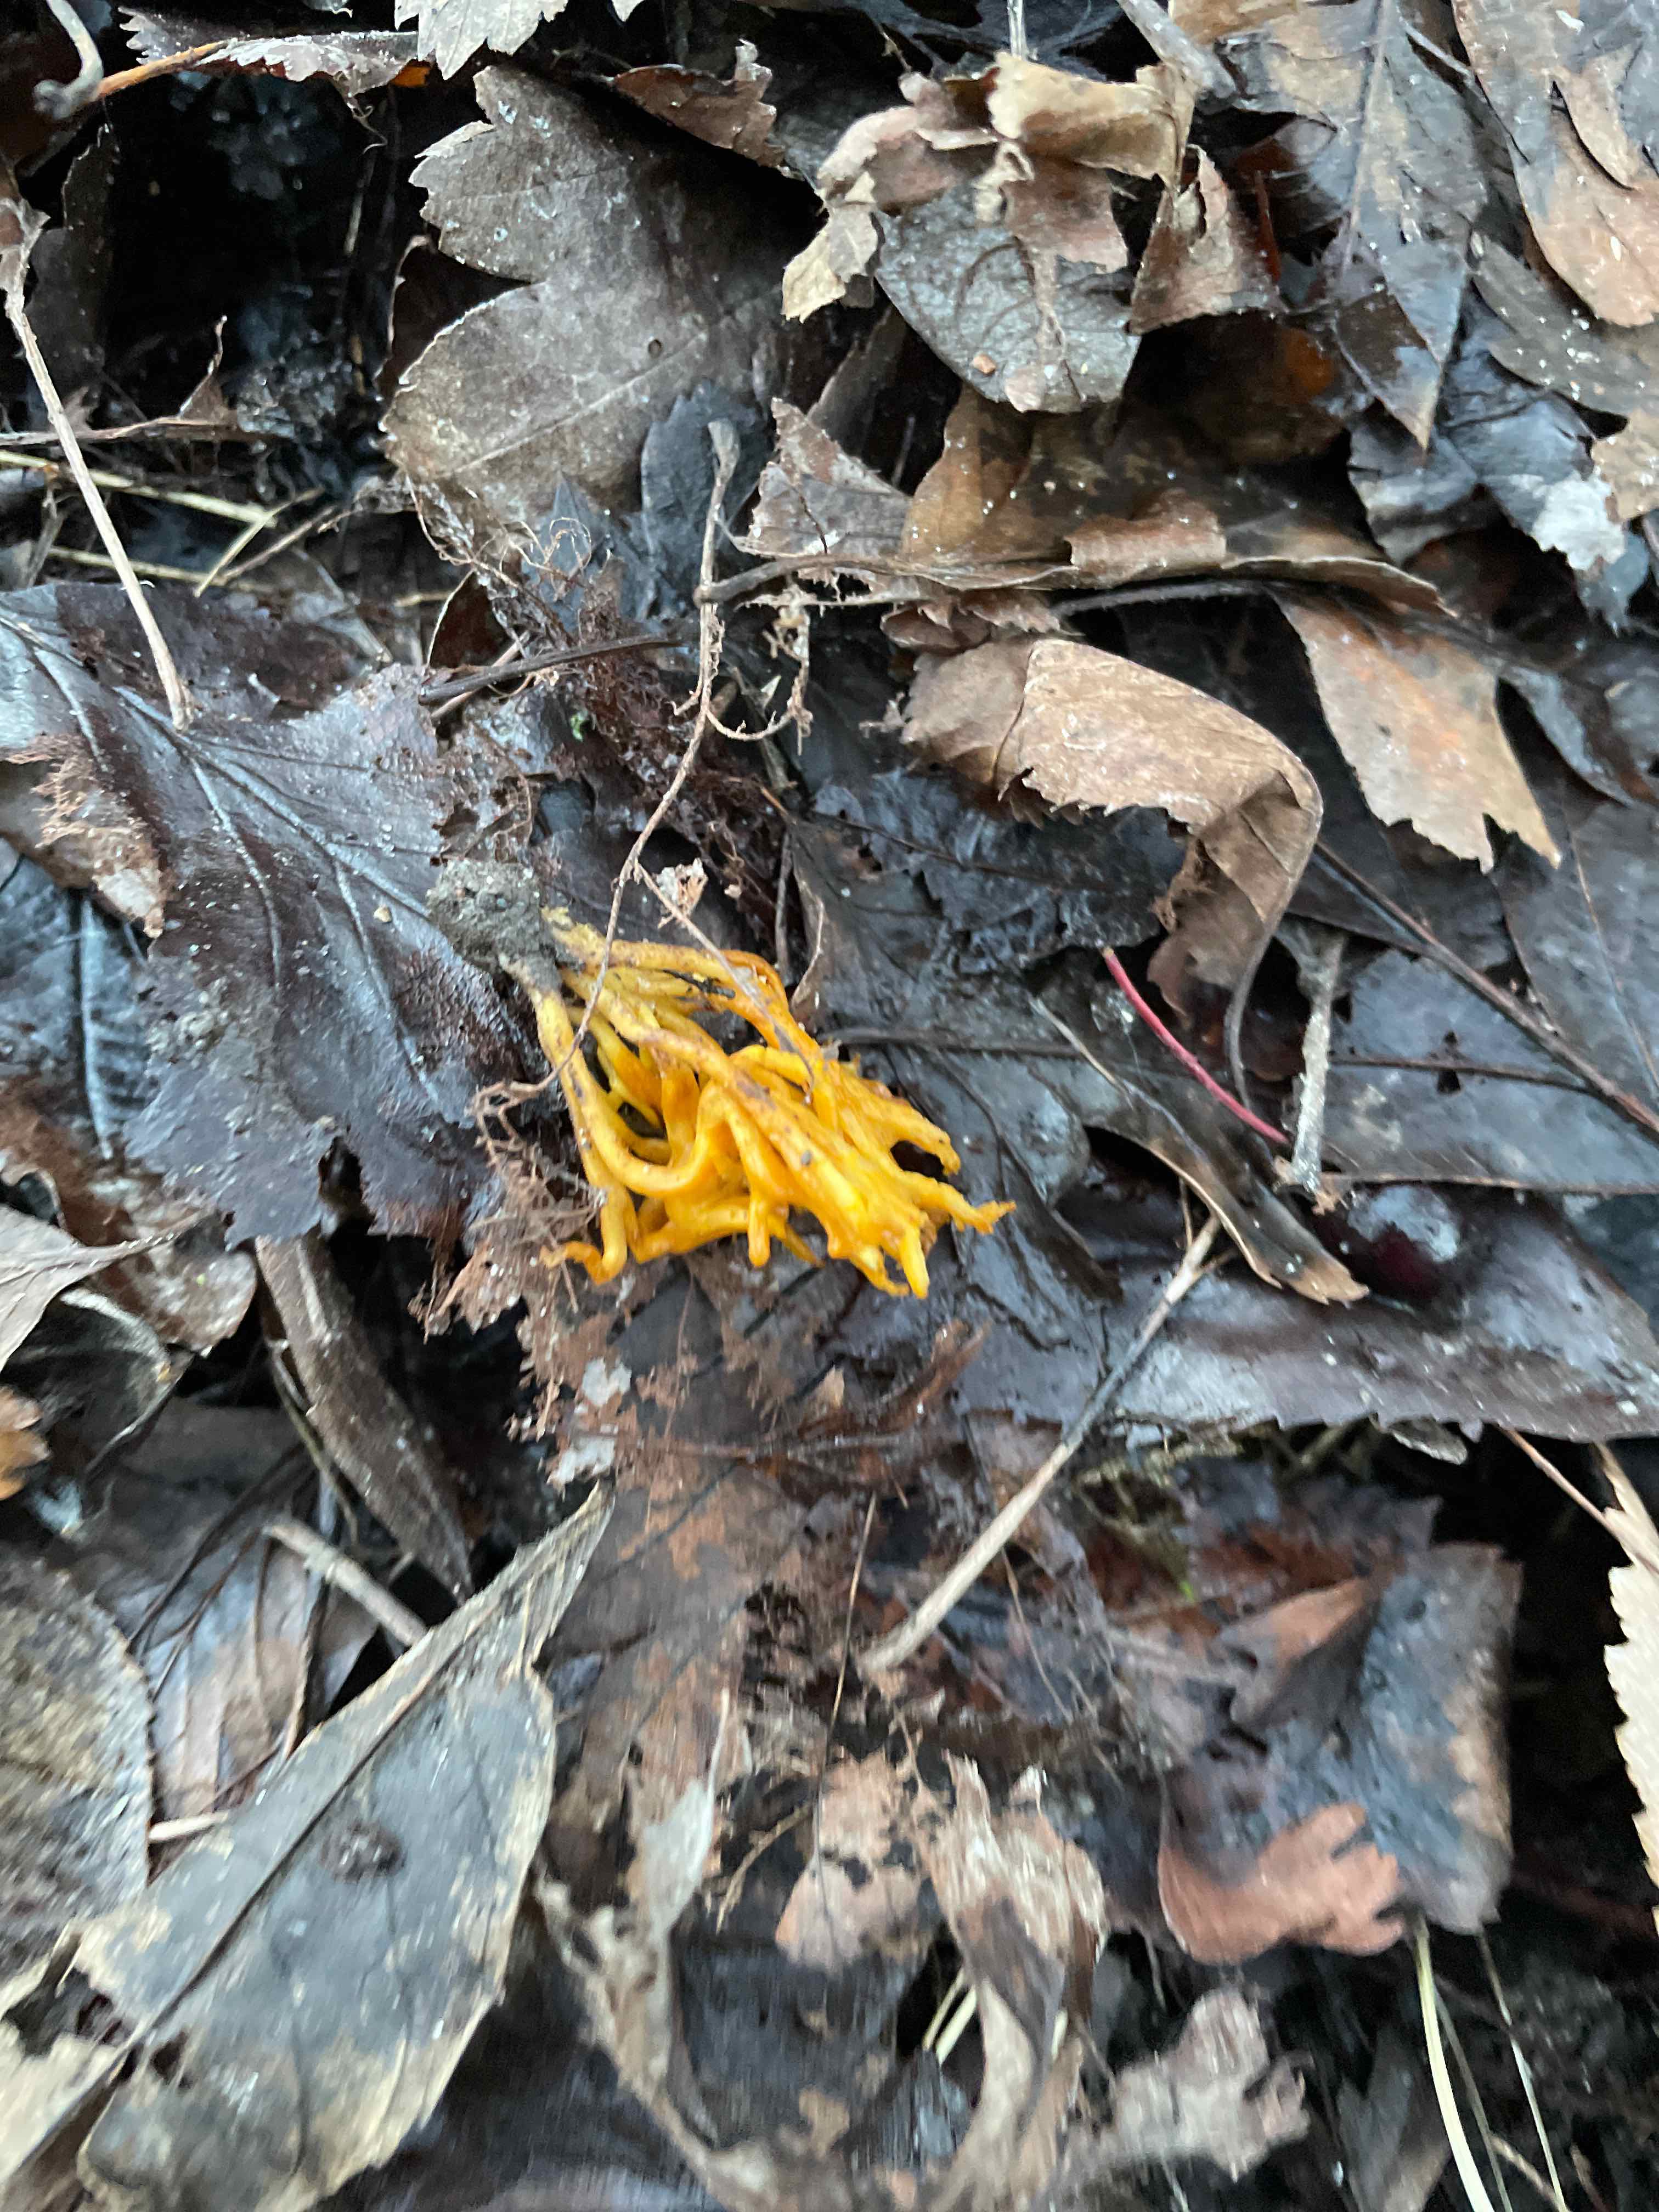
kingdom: Fungi
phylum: Basidiomycota
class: Dacrymycetes
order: Dacrymycetales
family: Dacrymycetaceae
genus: Calocera
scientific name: Calocera viscosa
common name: almindelig guldgaffel
